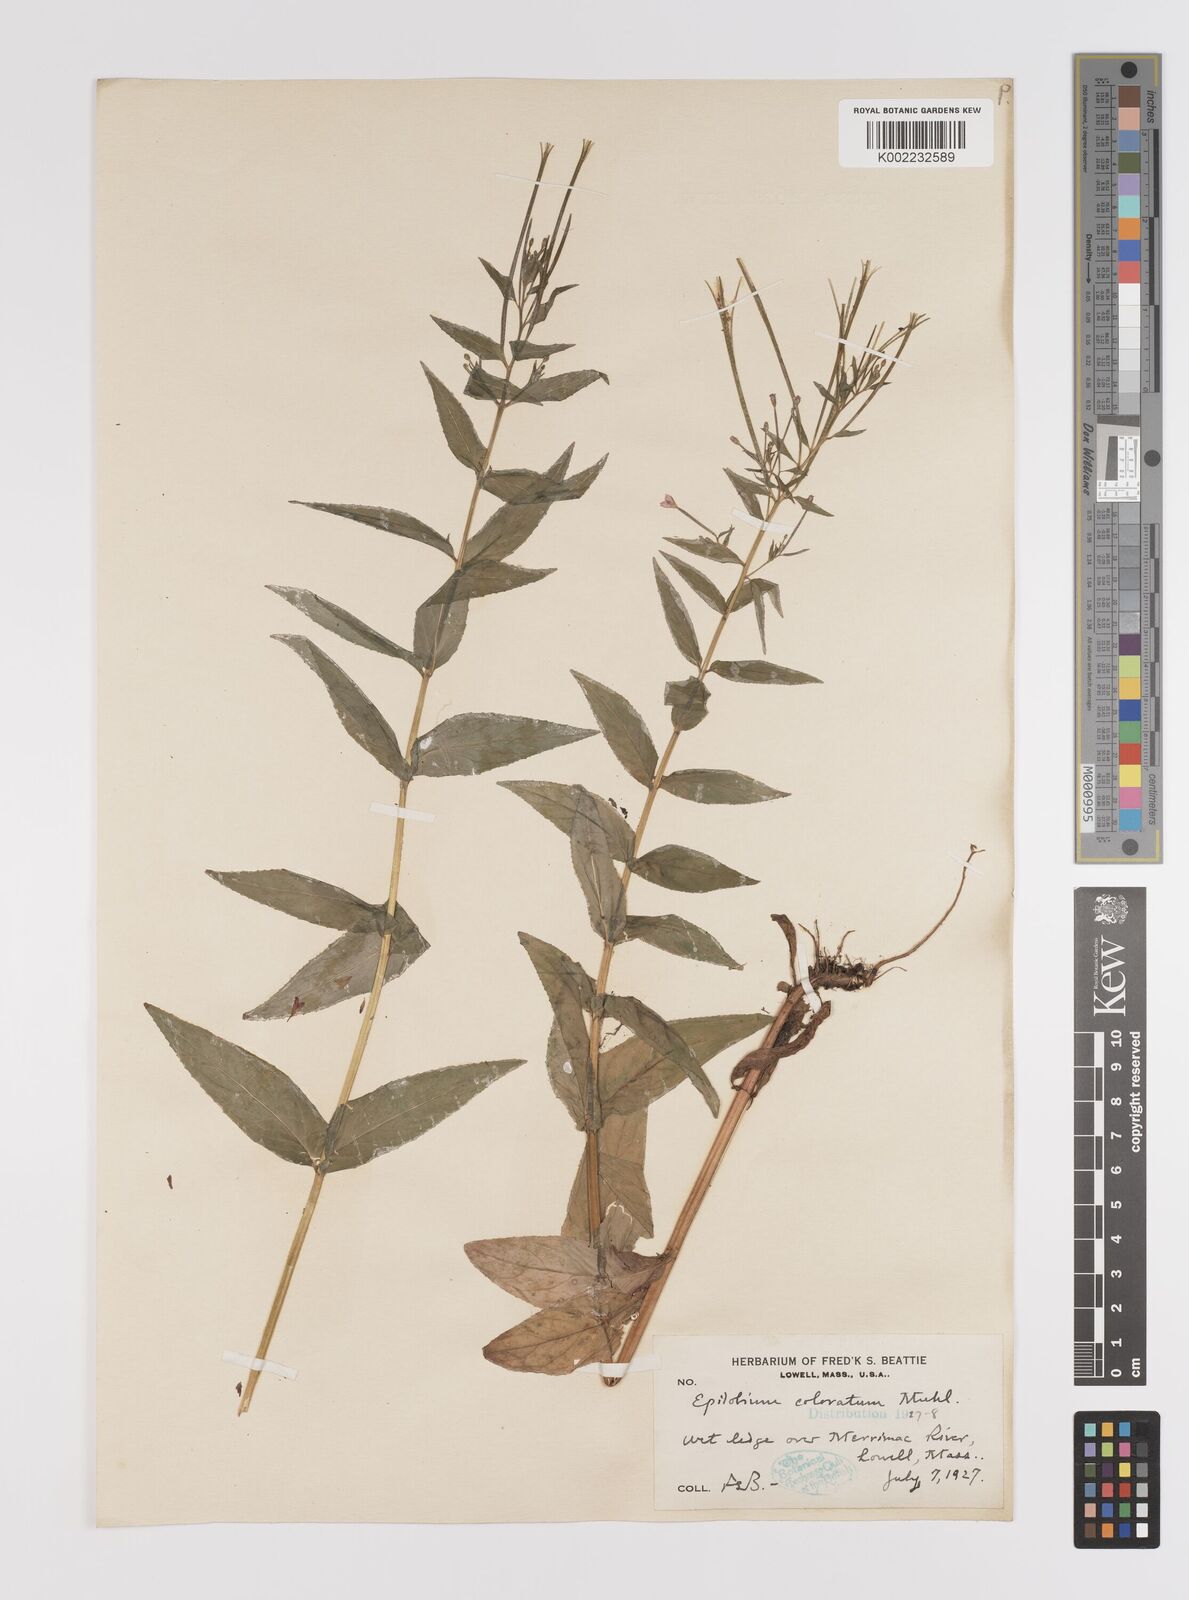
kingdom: Plantae
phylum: Tracheophyta
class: Magnoliopsida
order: Myrtales
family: Onagraceae
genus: Epilobium
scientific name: Epilobium coloratum
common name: Bronze willowherb
